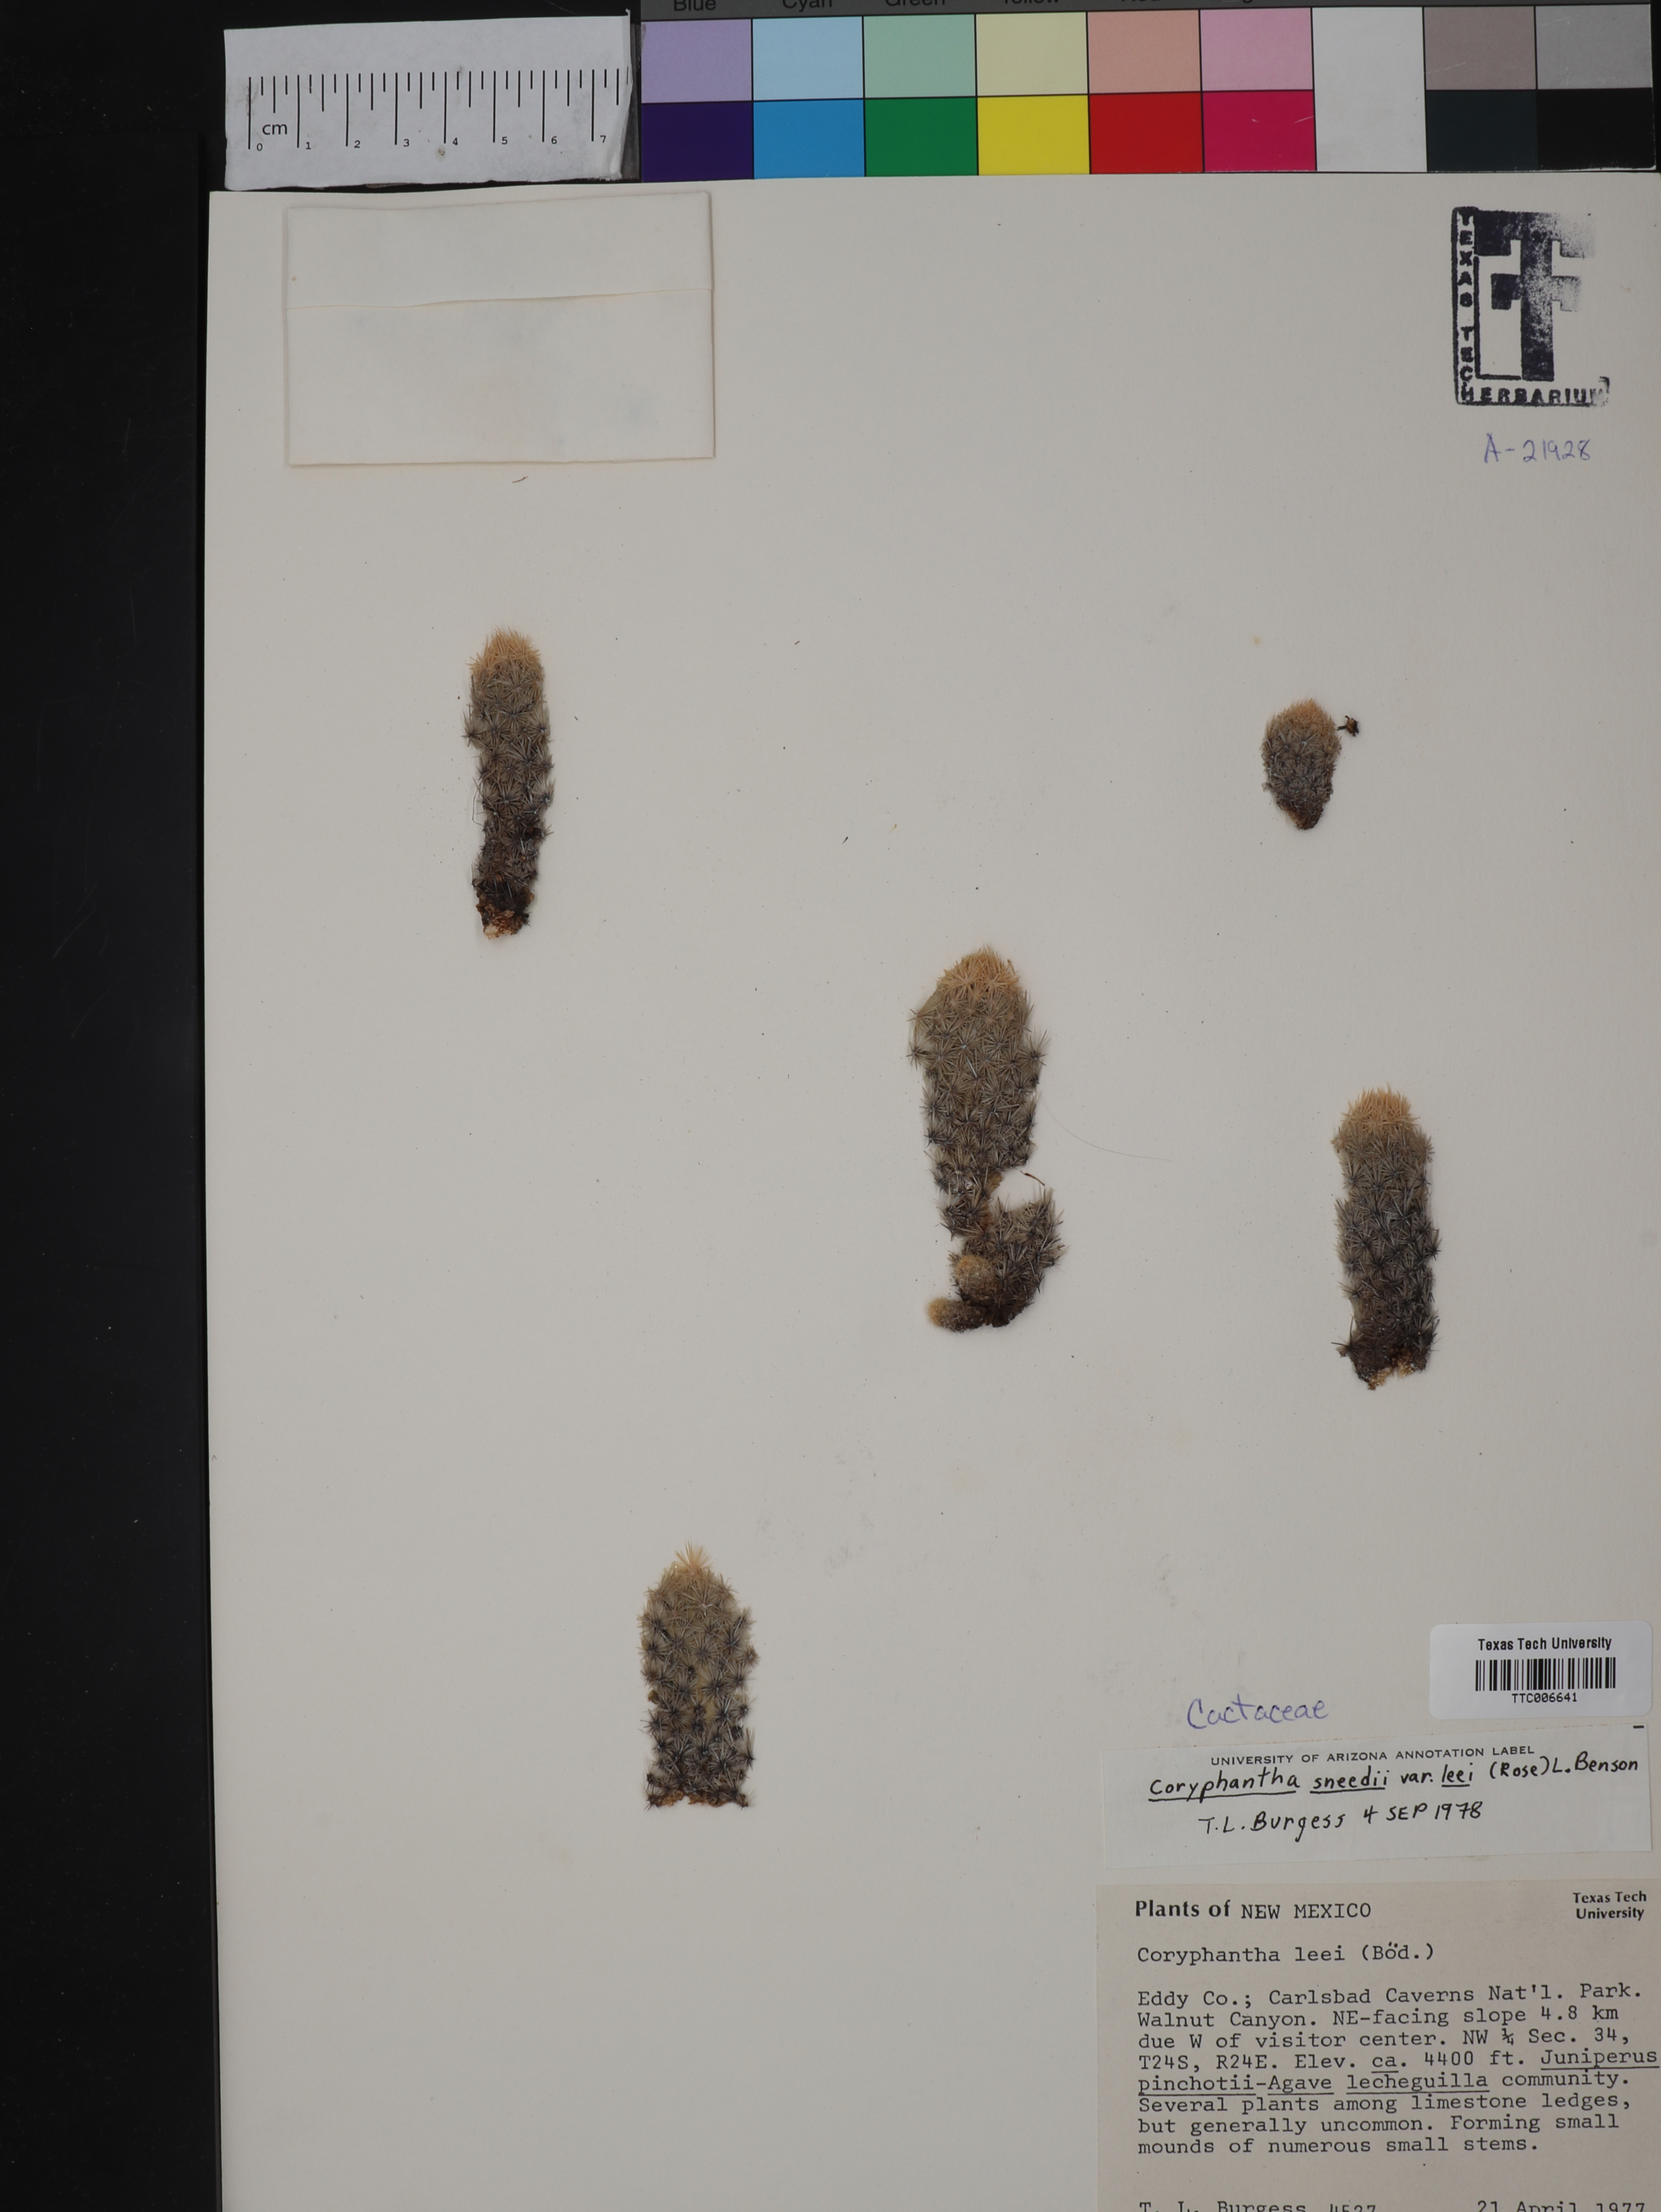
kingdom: Plantae
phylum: Tracheophyta
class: Magnoliopsida
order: Caryophyllales
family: Cactaceae
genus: Pelecyphora
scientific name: Pelecyphora sneedii
